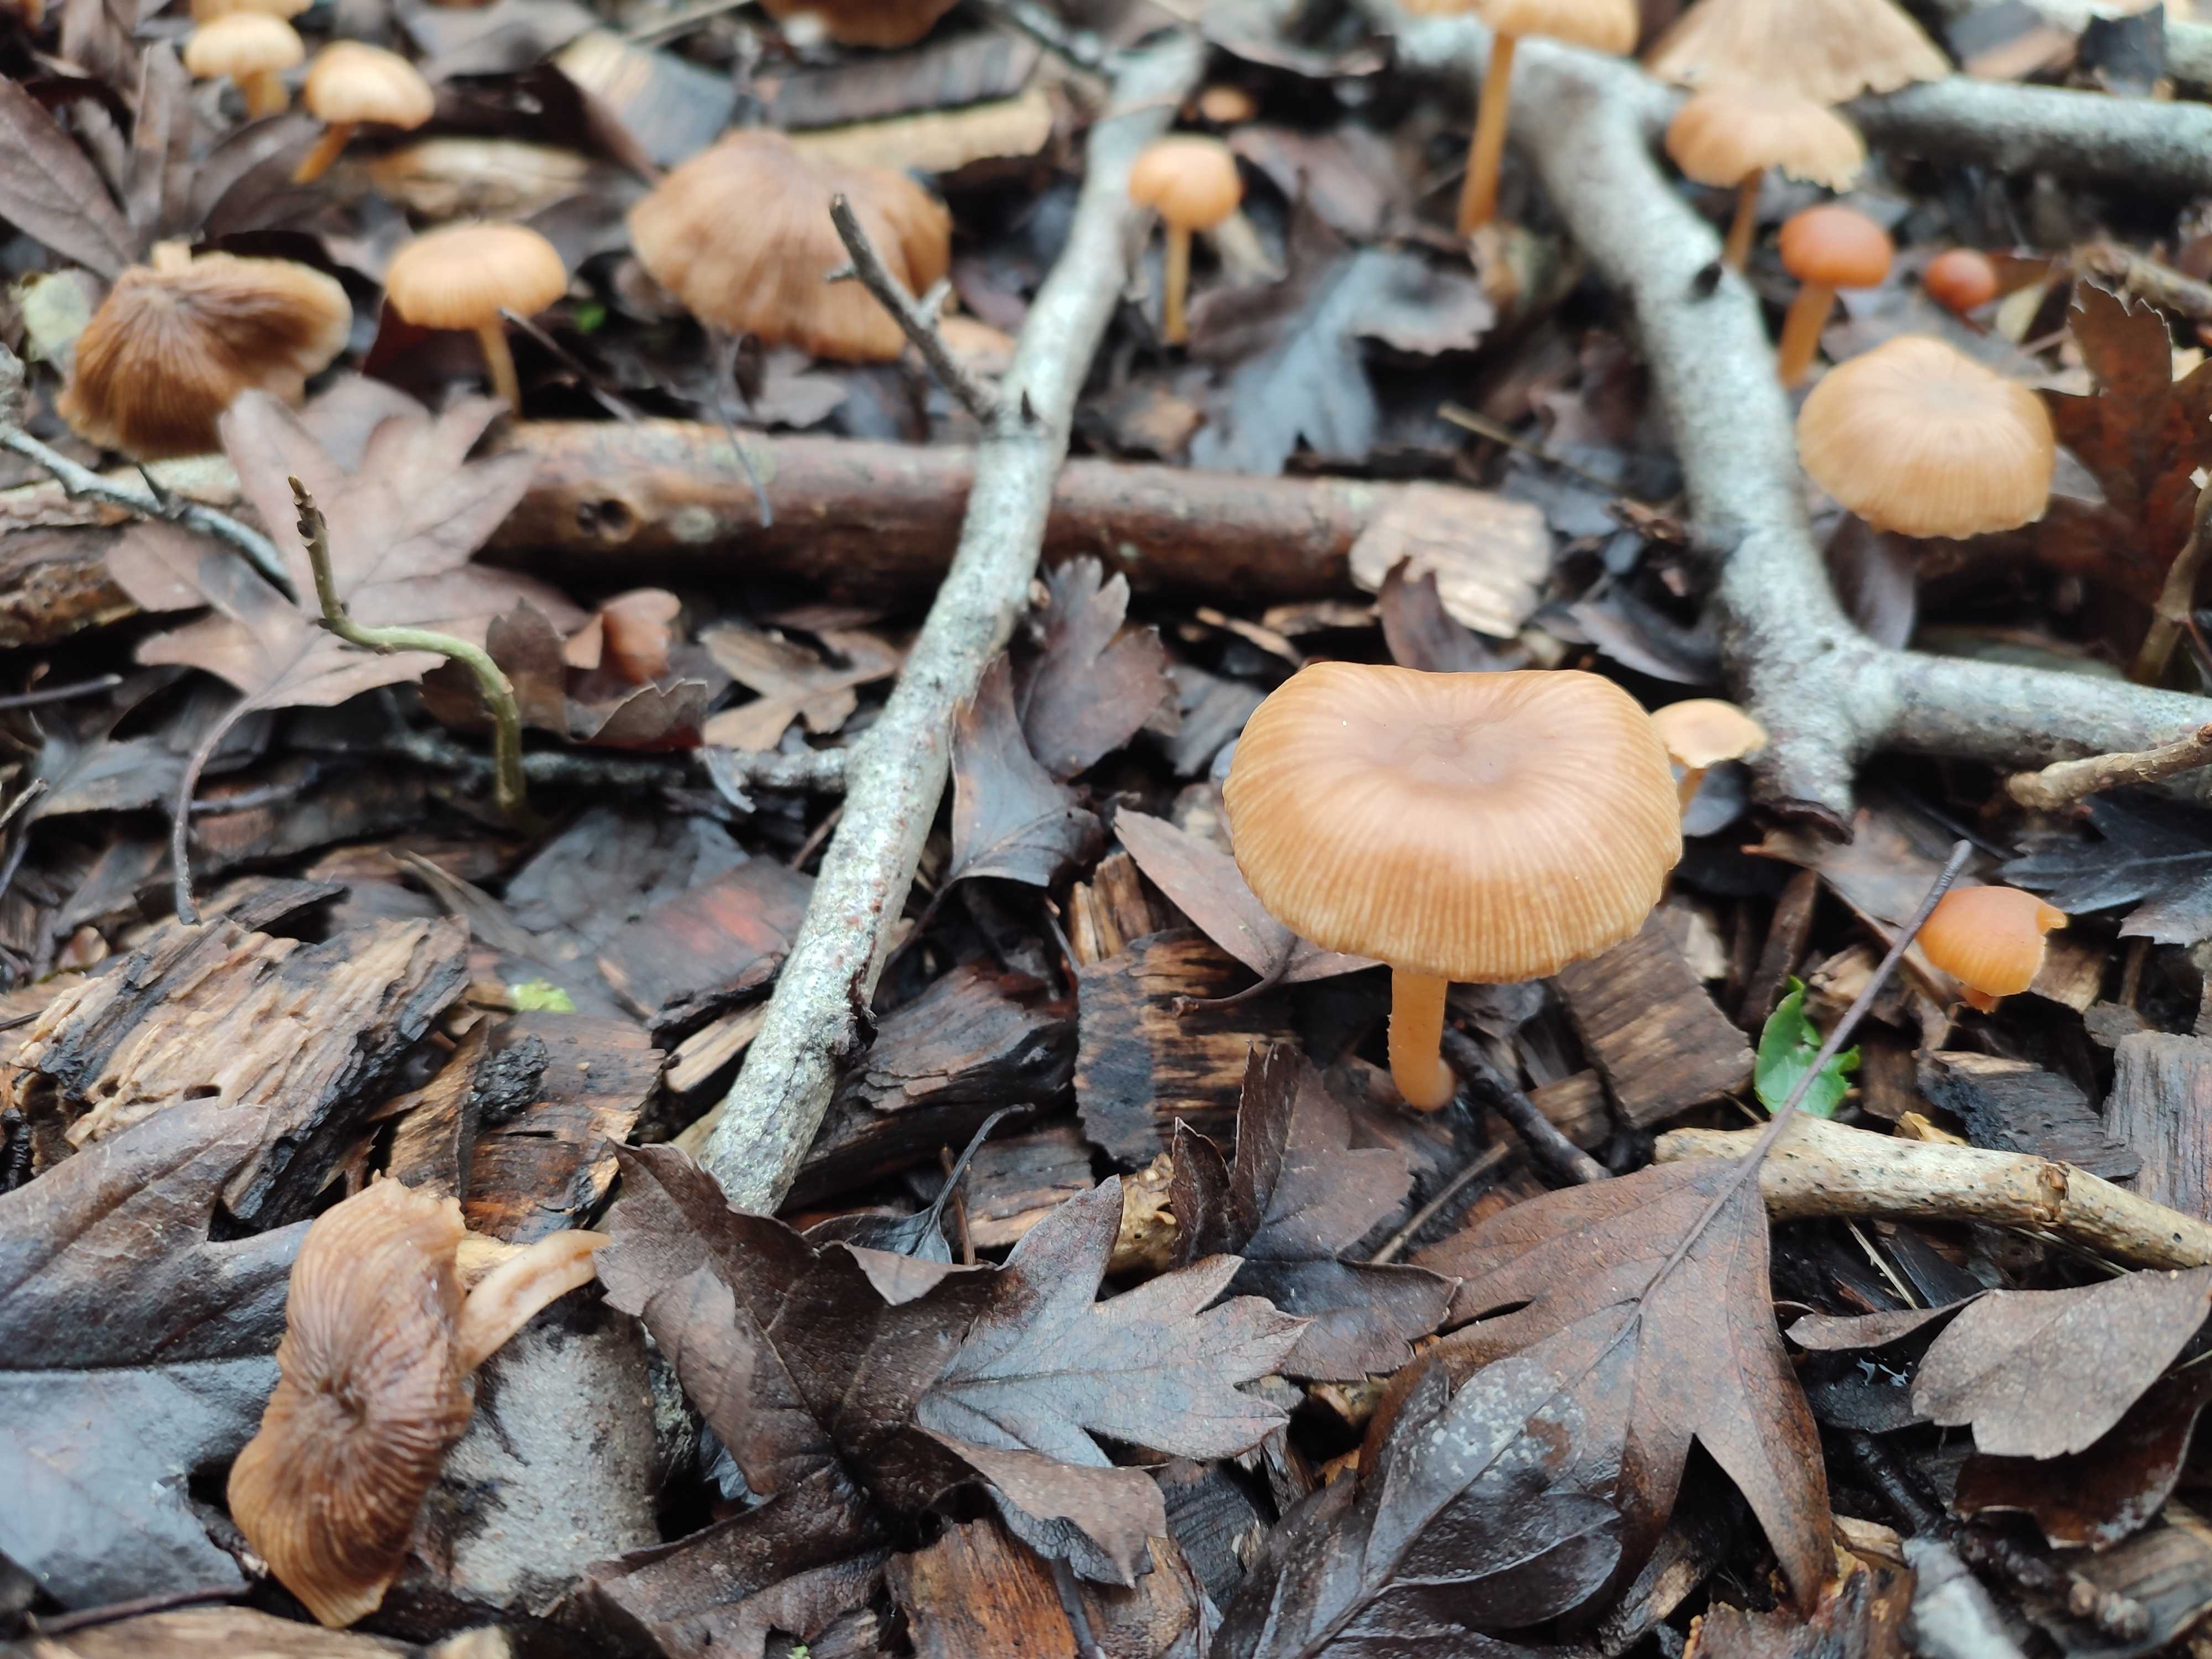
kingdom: Fungi
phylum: Basidiomycota
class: Agaricomycetes
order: Agaricales
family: Tubariaceae
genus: Tubaria
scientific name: Tubaria furfuracea
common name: kliddet fnughat
